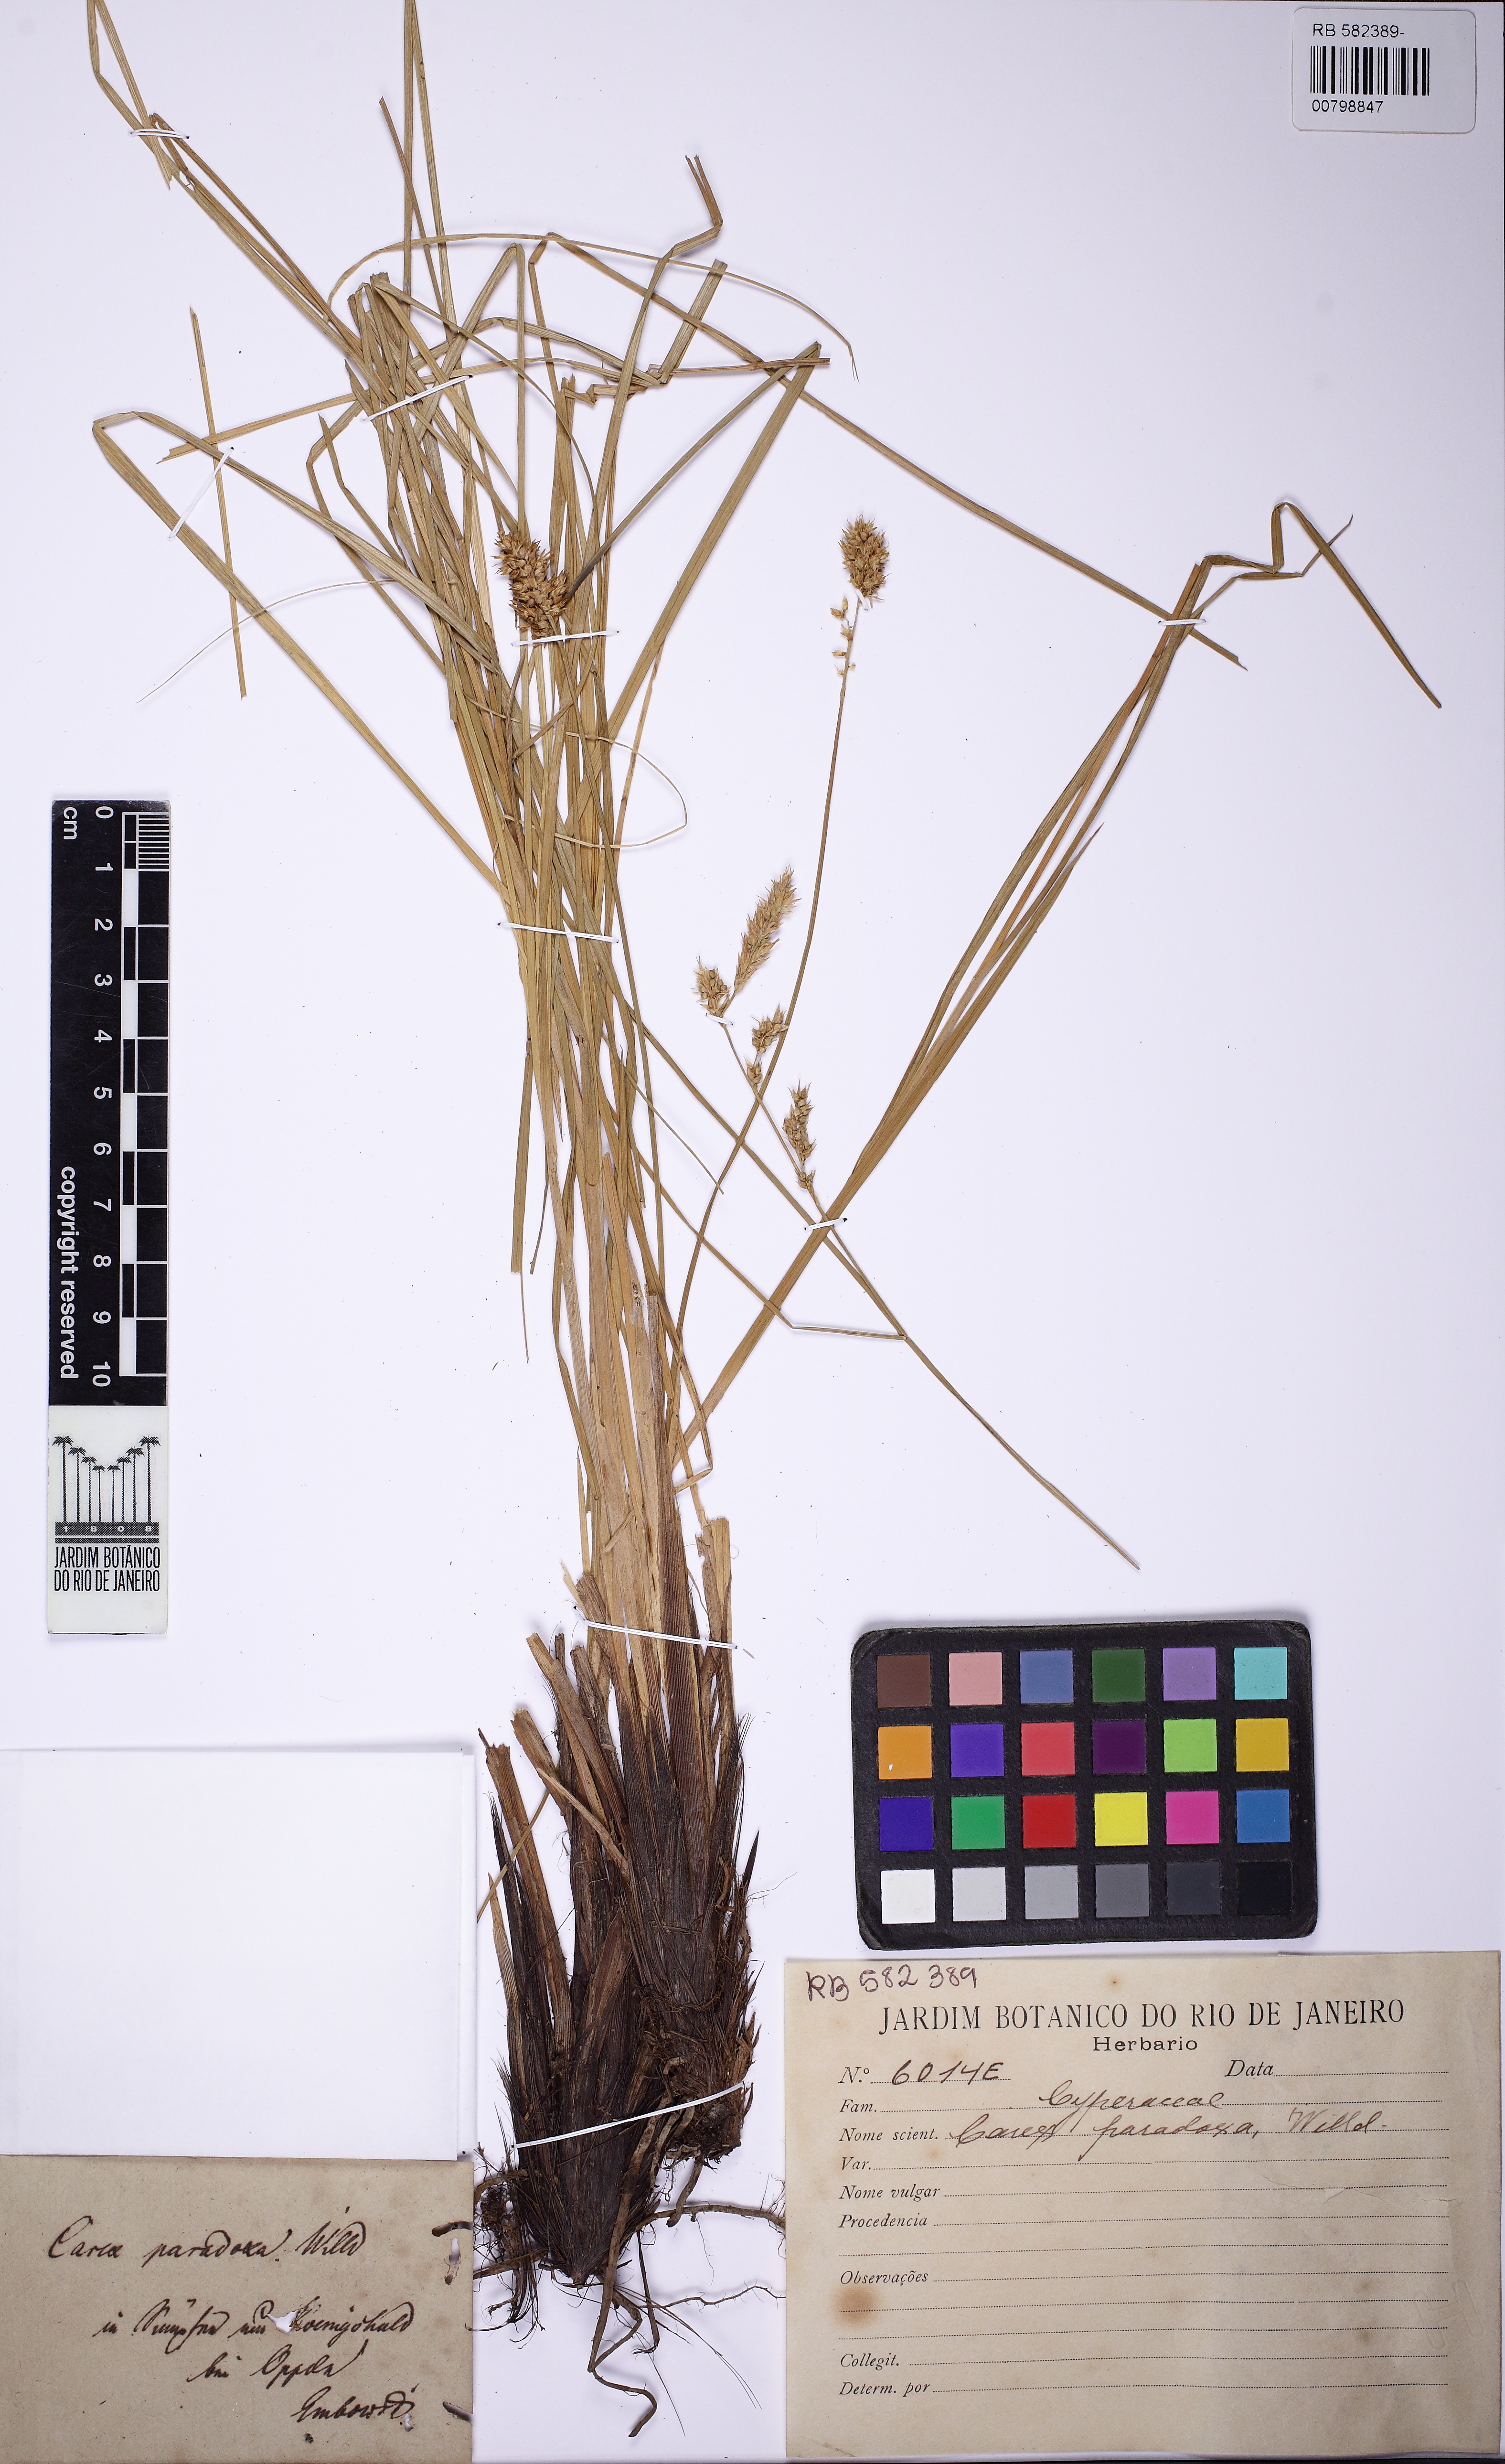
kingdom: Plantae
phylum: Tracheophyta
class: Liliopsida
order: Poales
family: Cyperaceae
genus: Carex
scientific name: Carex ericetorum
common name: Rare spring-sedge
